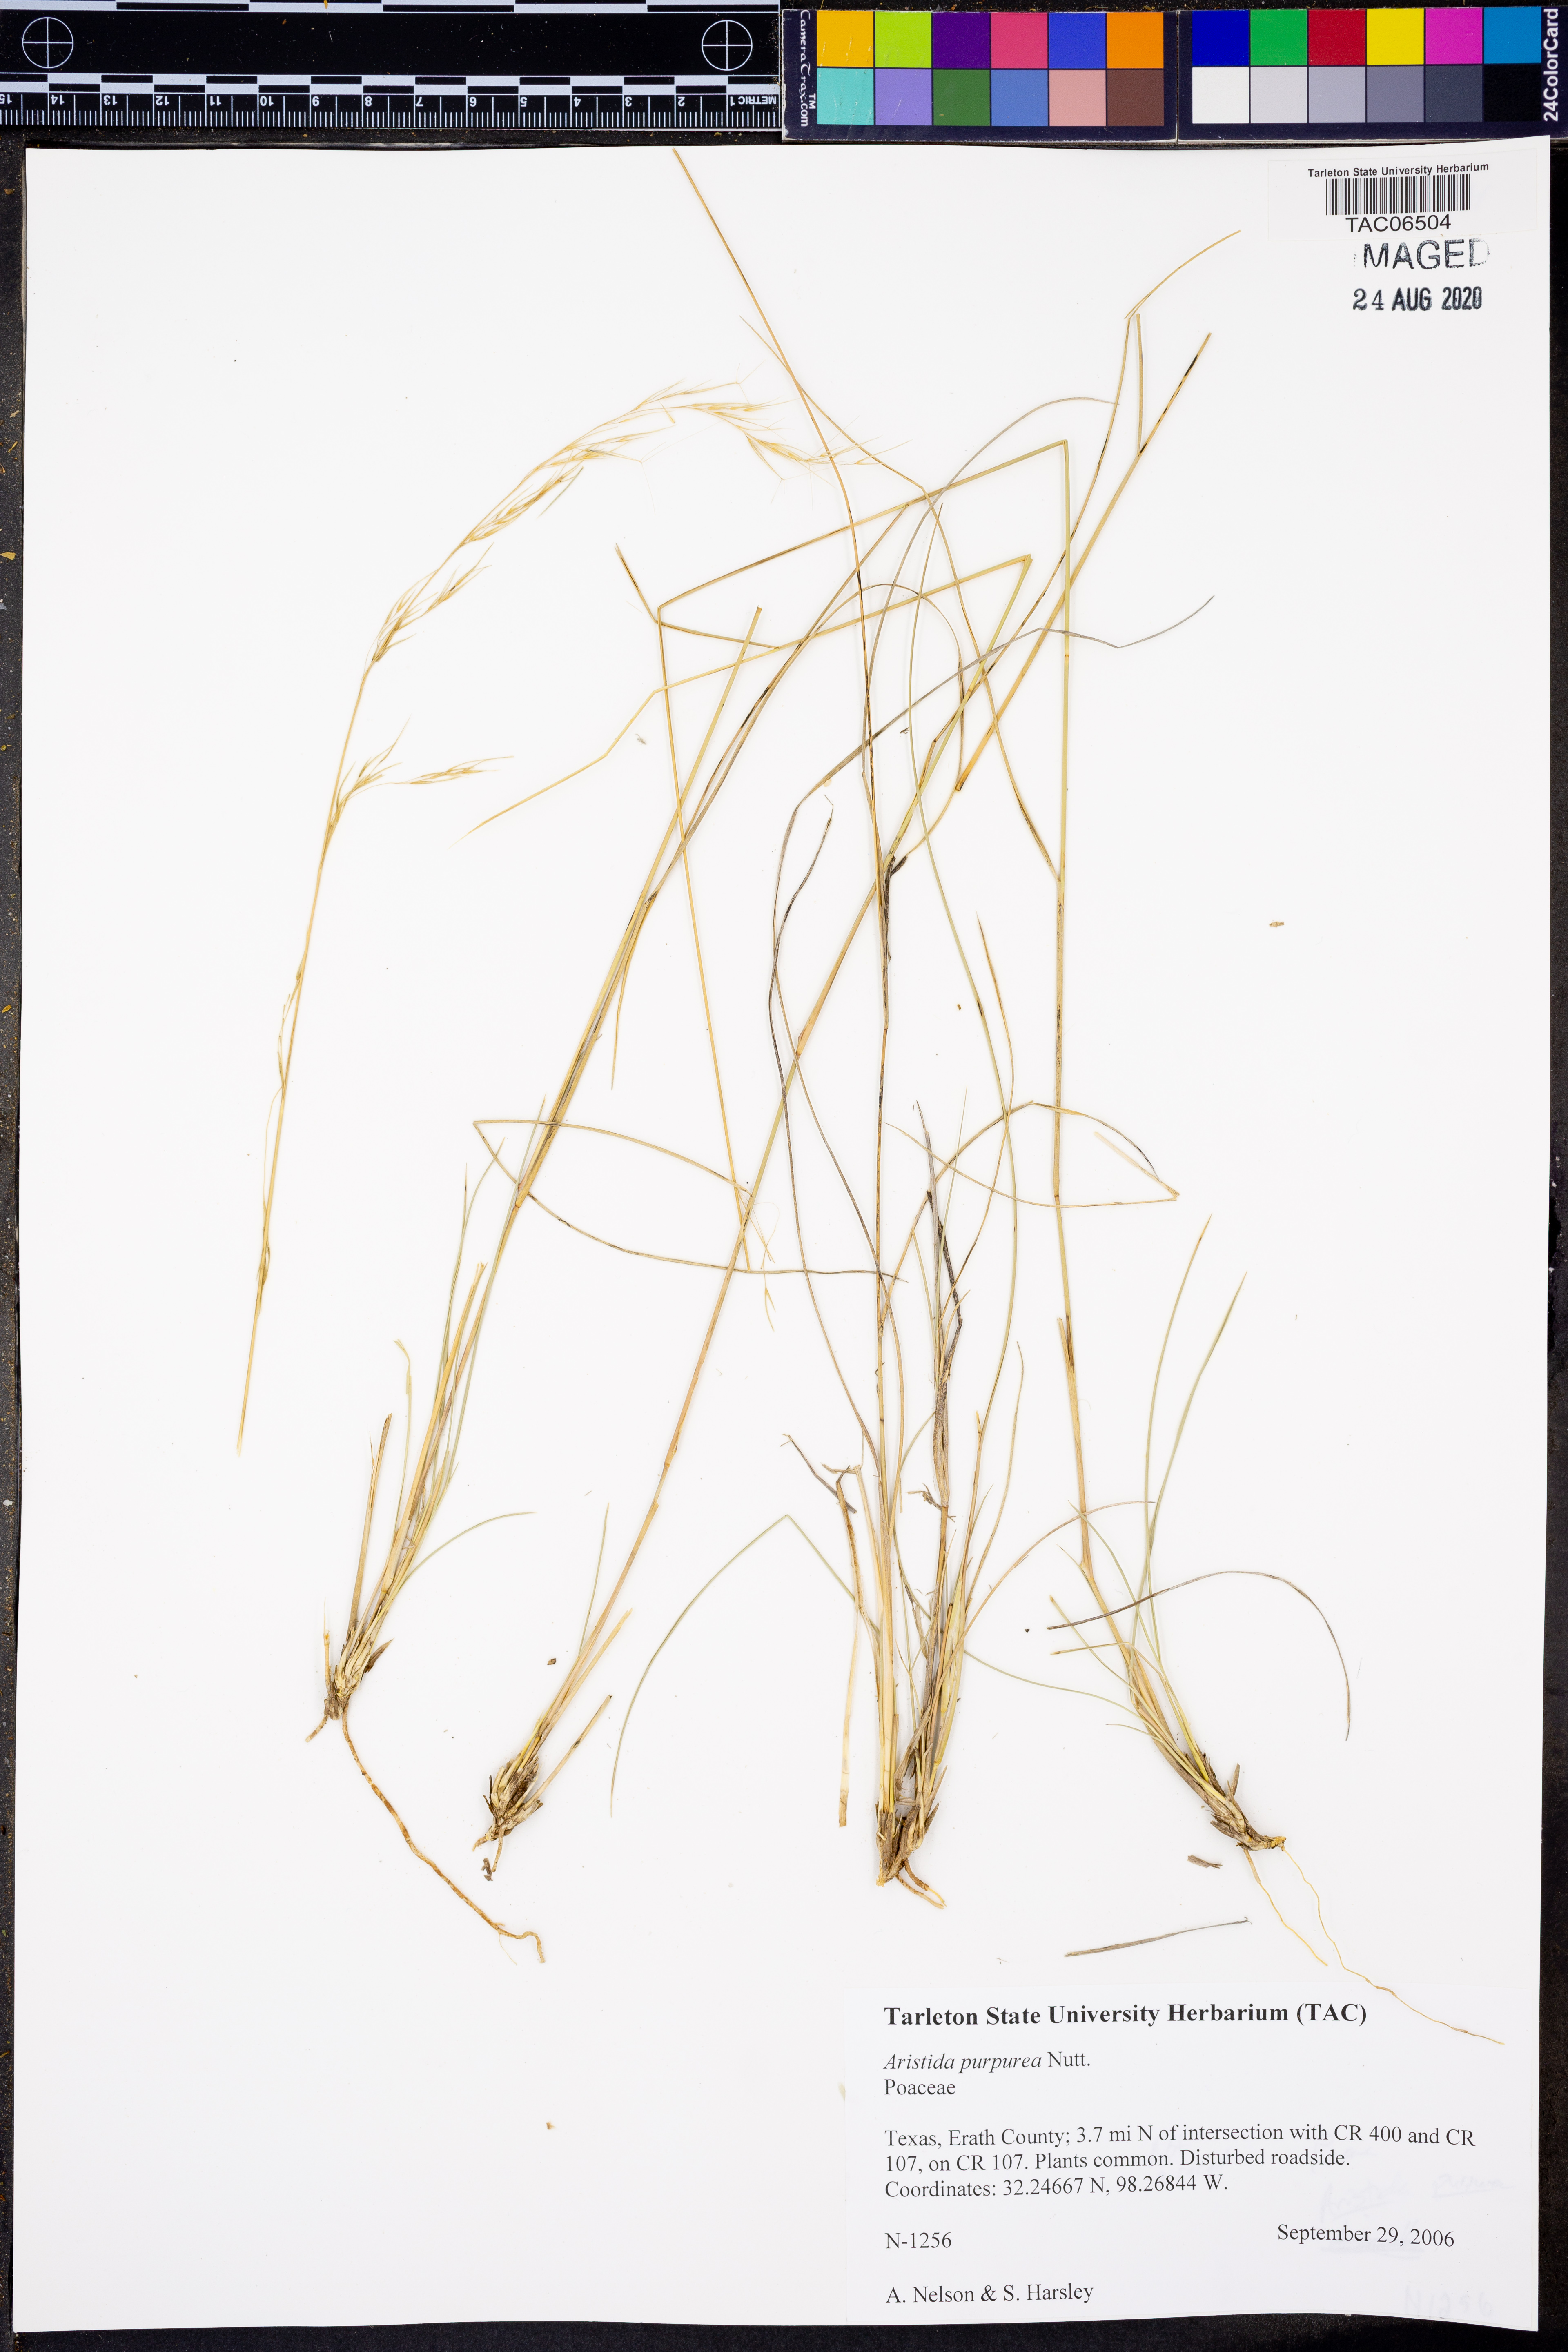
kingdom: Plantae
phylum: Tracheophyta
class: Liliopsida
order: Poales
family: Poaceae
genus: Aristida
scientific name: Aristida purpurea
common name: Purple threeawn
